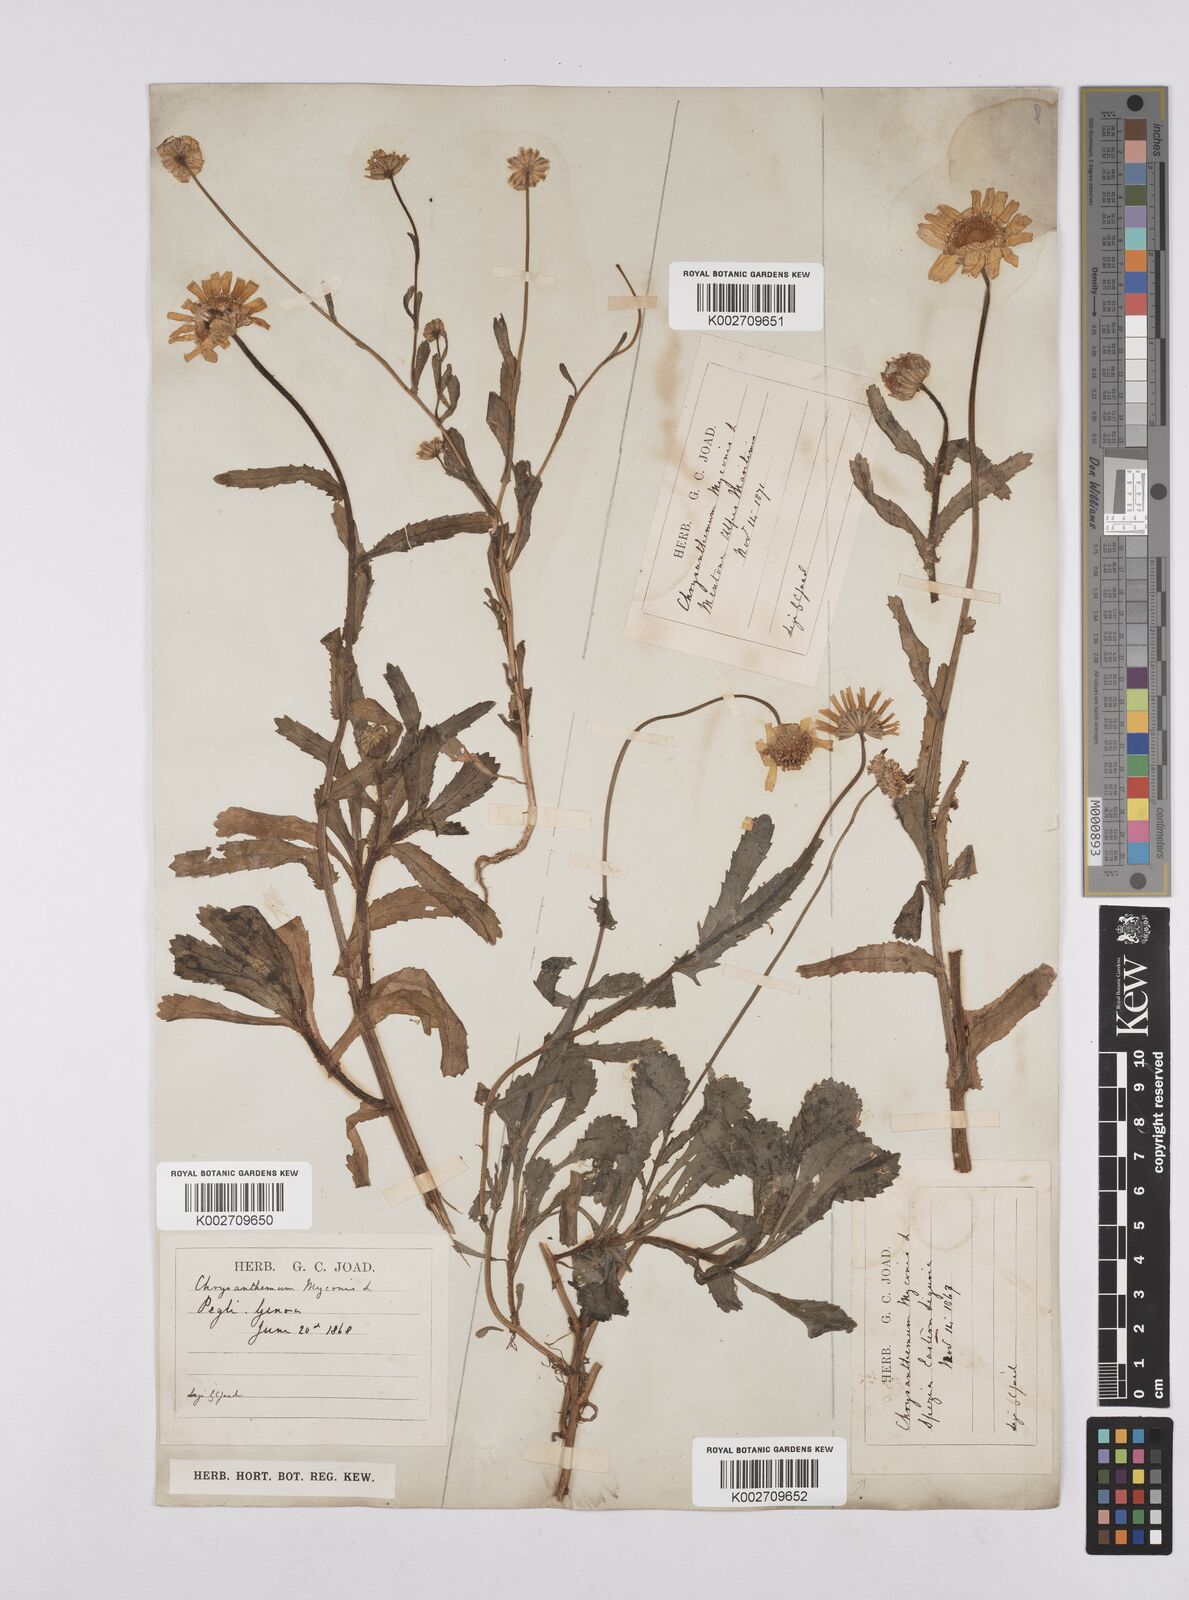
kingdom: Plantae
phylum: Tracheophyta
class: Magnoliopsida
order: Asterales
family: Asteraceae
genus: Coleostephus
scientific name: Coleostephus myconis
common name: Mediterranean marigold
